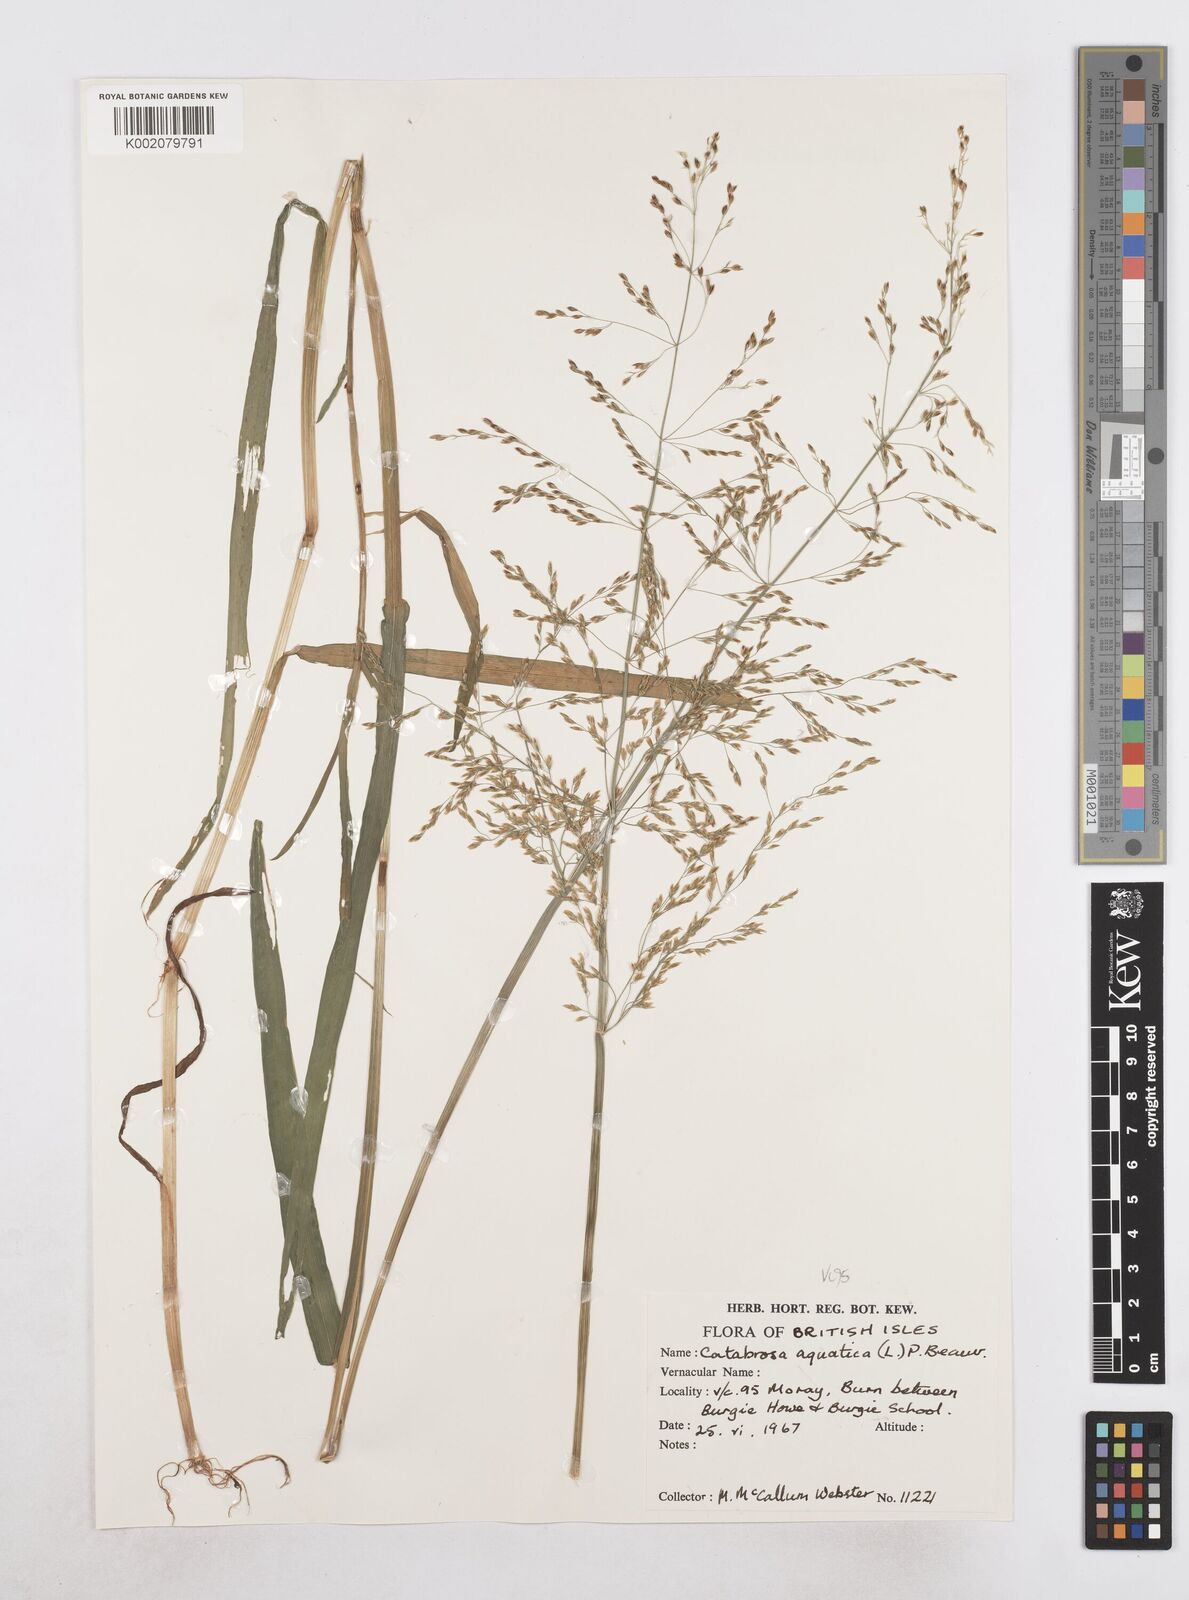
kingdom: Plantae
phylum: Tracheophyta
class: Liliopsida
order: Poales
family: Poaceae
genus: Catabrosa
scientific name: Catabrosa aquatica
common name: Whorl-grass
